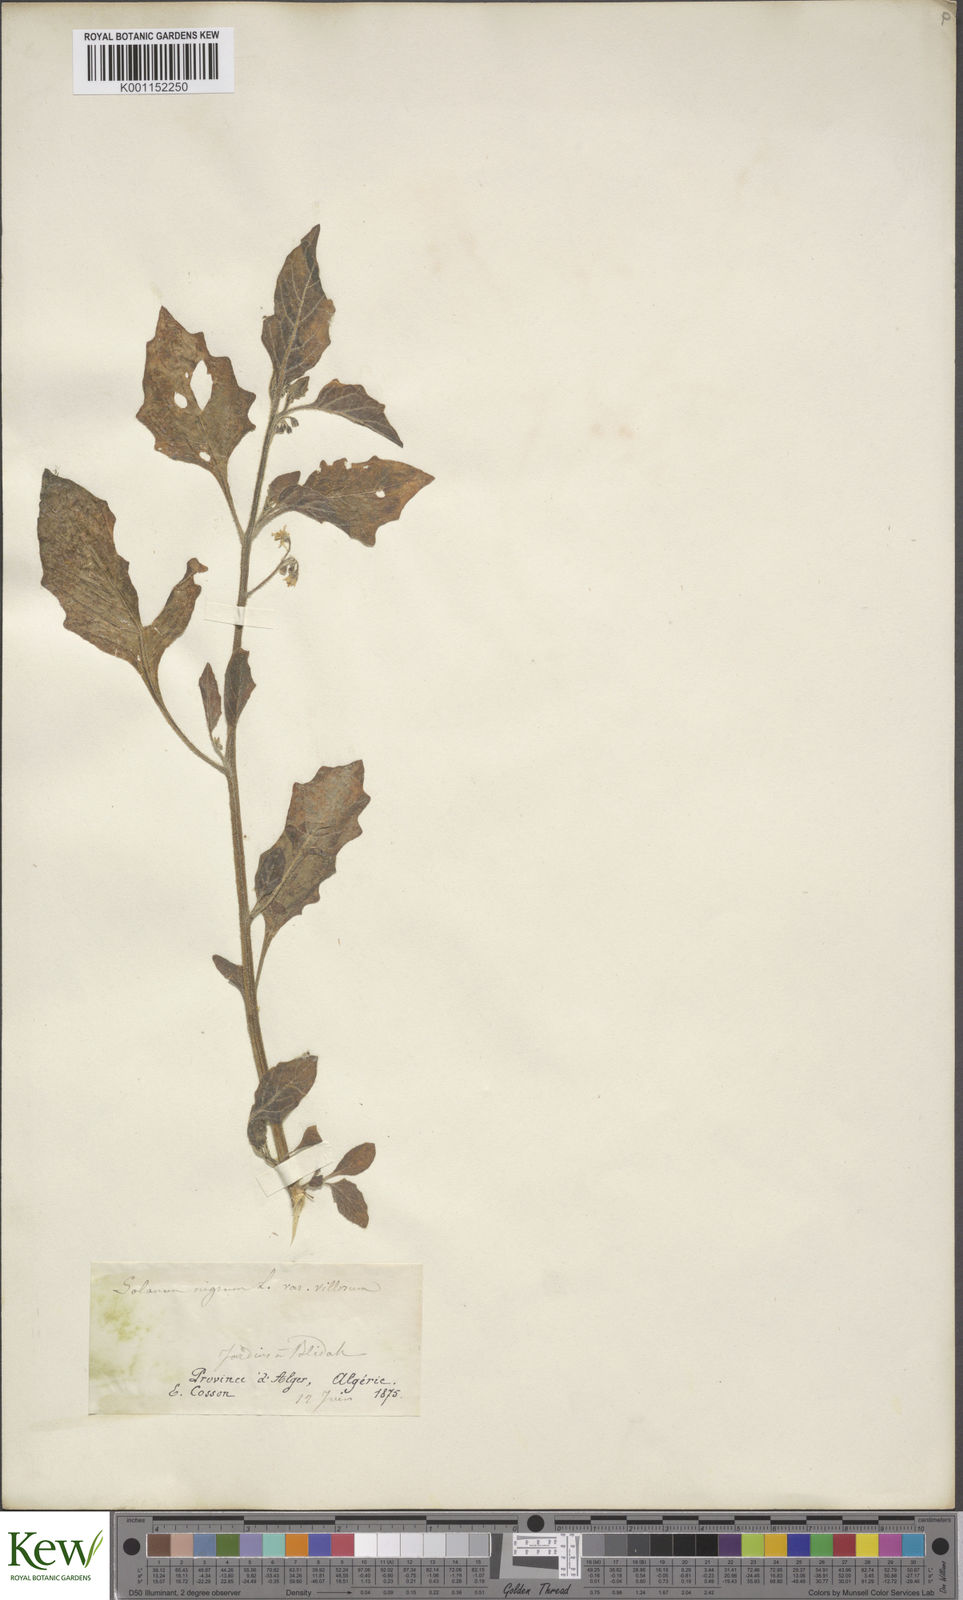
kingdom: Plantae
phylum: Tracheophyta
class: Magnoliopsida
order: Solanales
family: Solanaceae
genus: Solanum
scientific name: Solanum villosum
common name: Red nightshade
